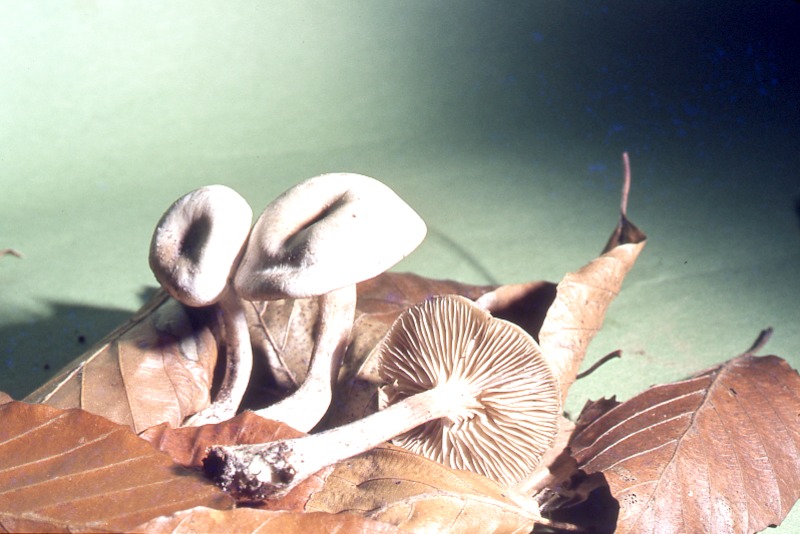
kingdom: Fungi
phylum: Basidiomycota
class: Agaricomycetes
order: Agaricales
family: Tricholomataceae
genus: Clitocybe
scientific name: Clitocybe umbilicata
